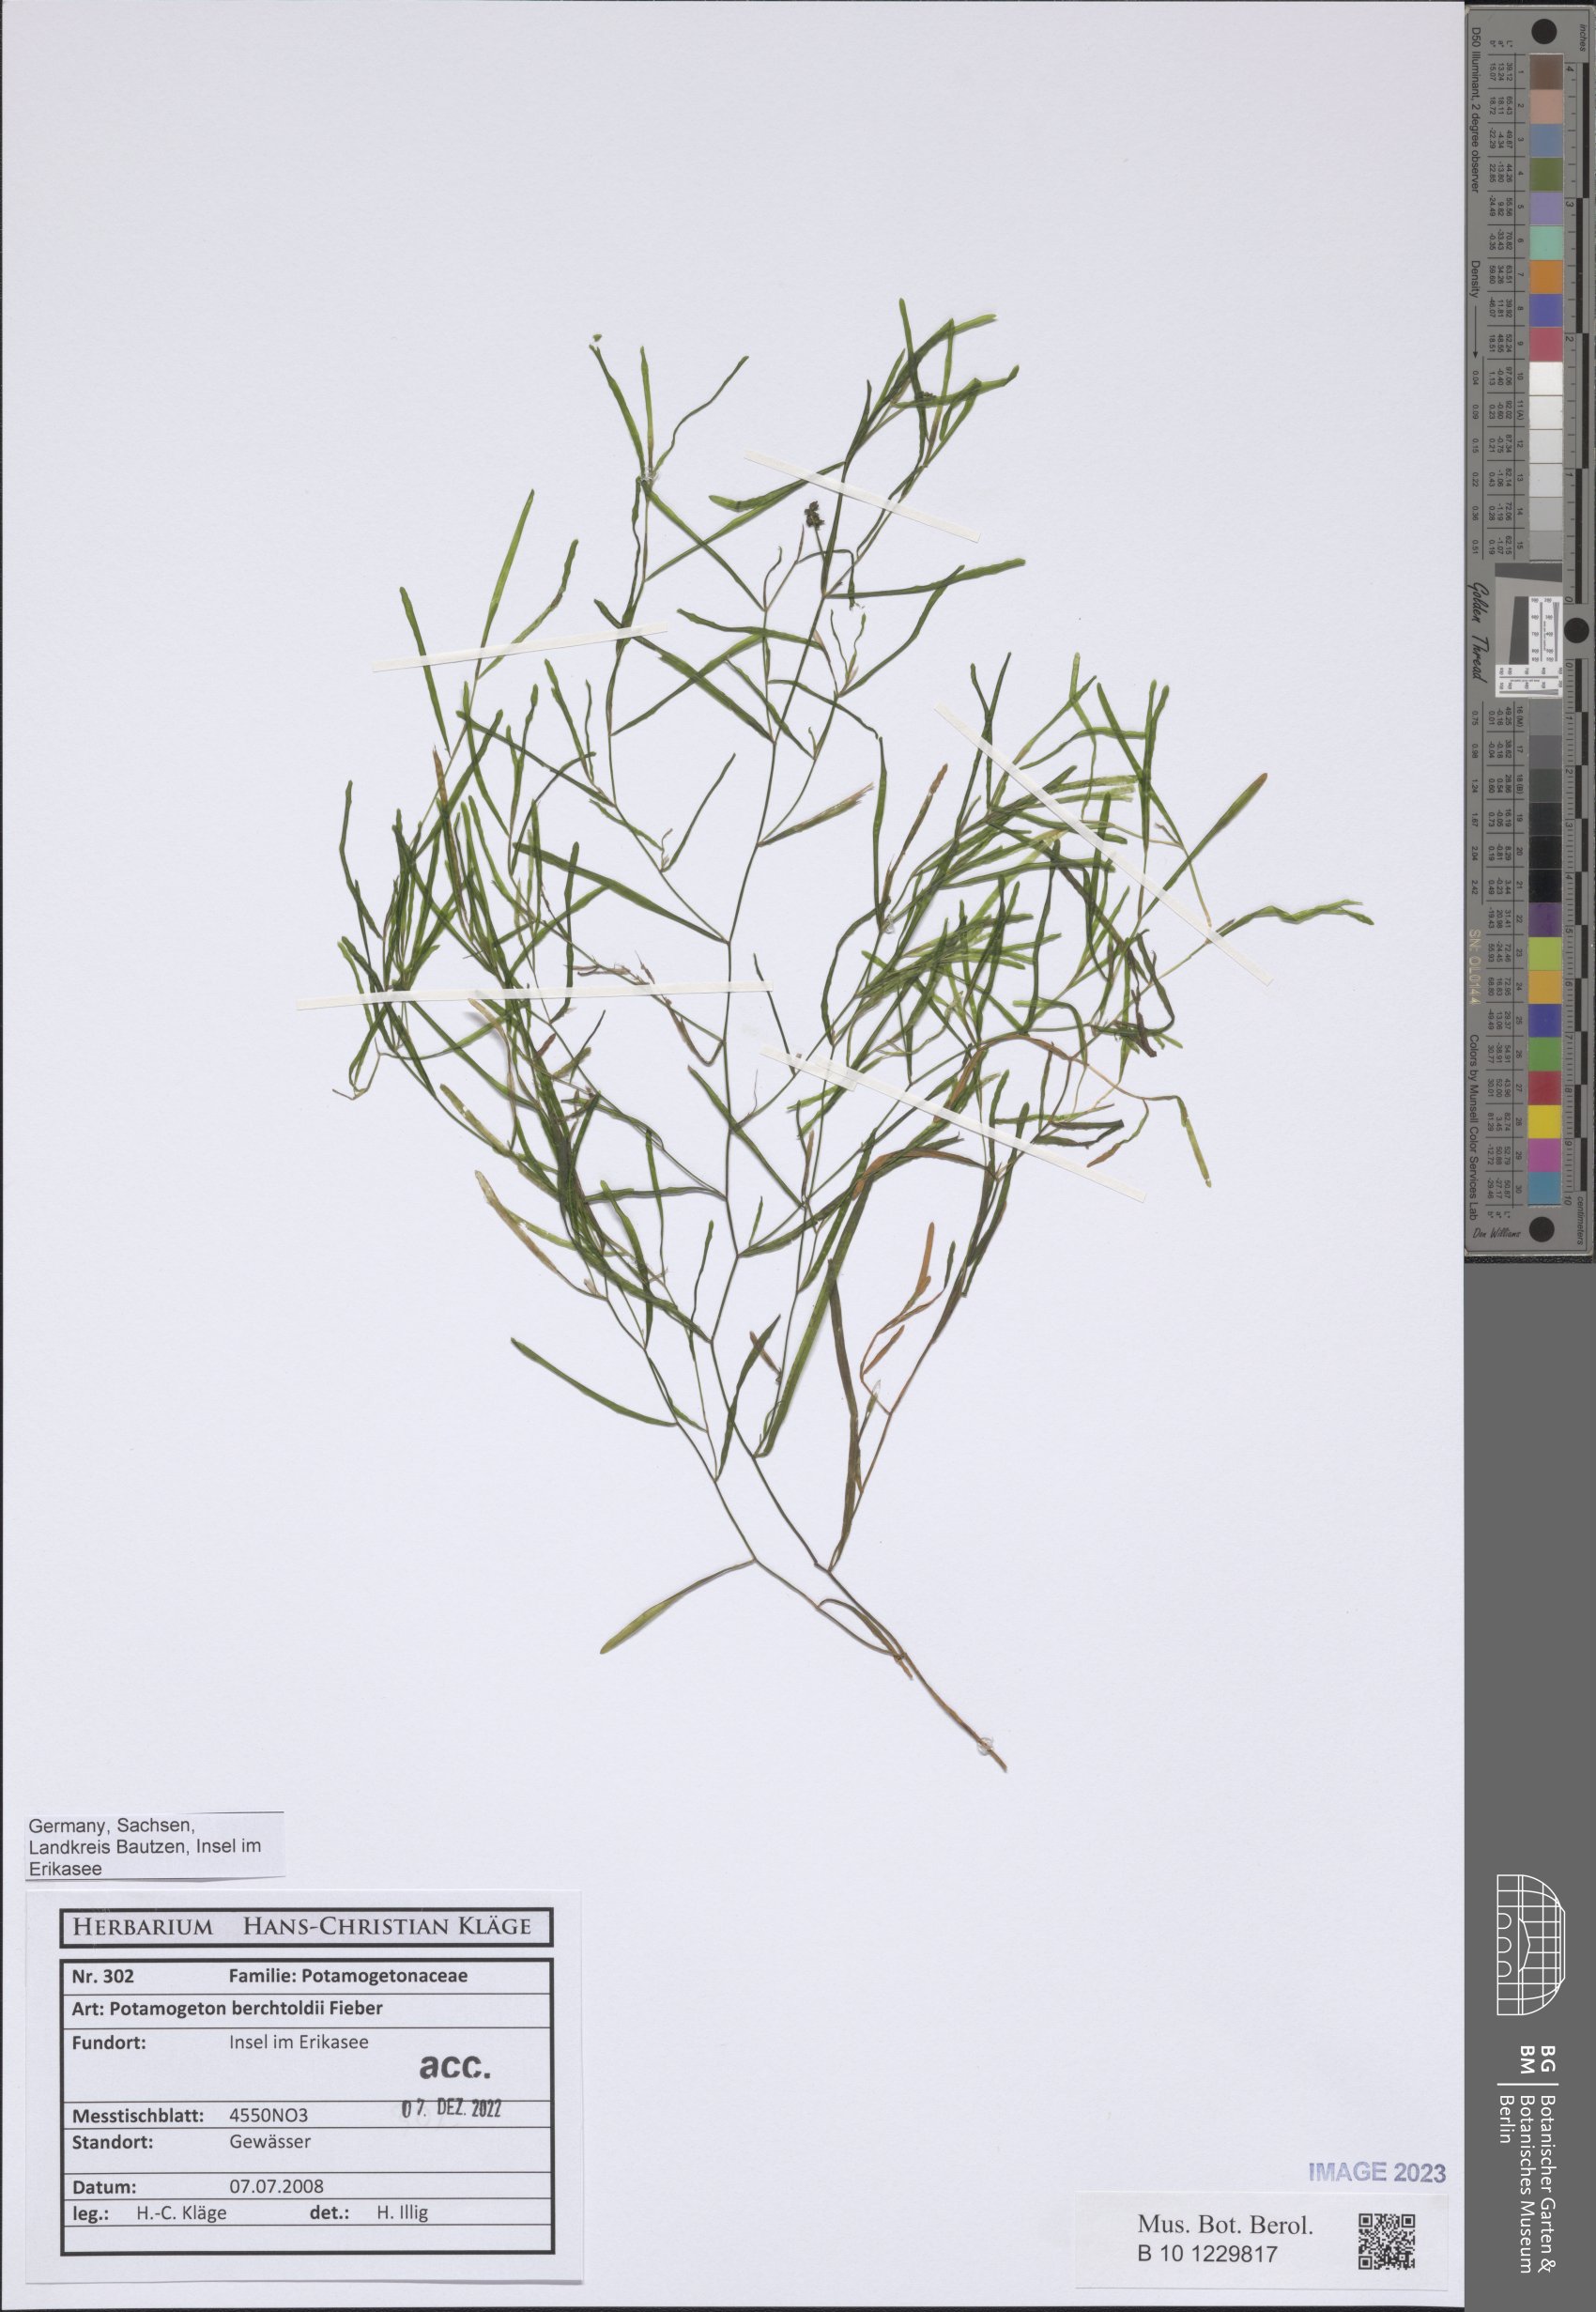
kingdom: Plantae
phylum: Tracheophyta
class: Liliopsida
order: Alismatales
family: Potamogetonaceae
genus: Potamogeton
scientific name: Potamogeton berchtoldii
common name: Small pondweed
